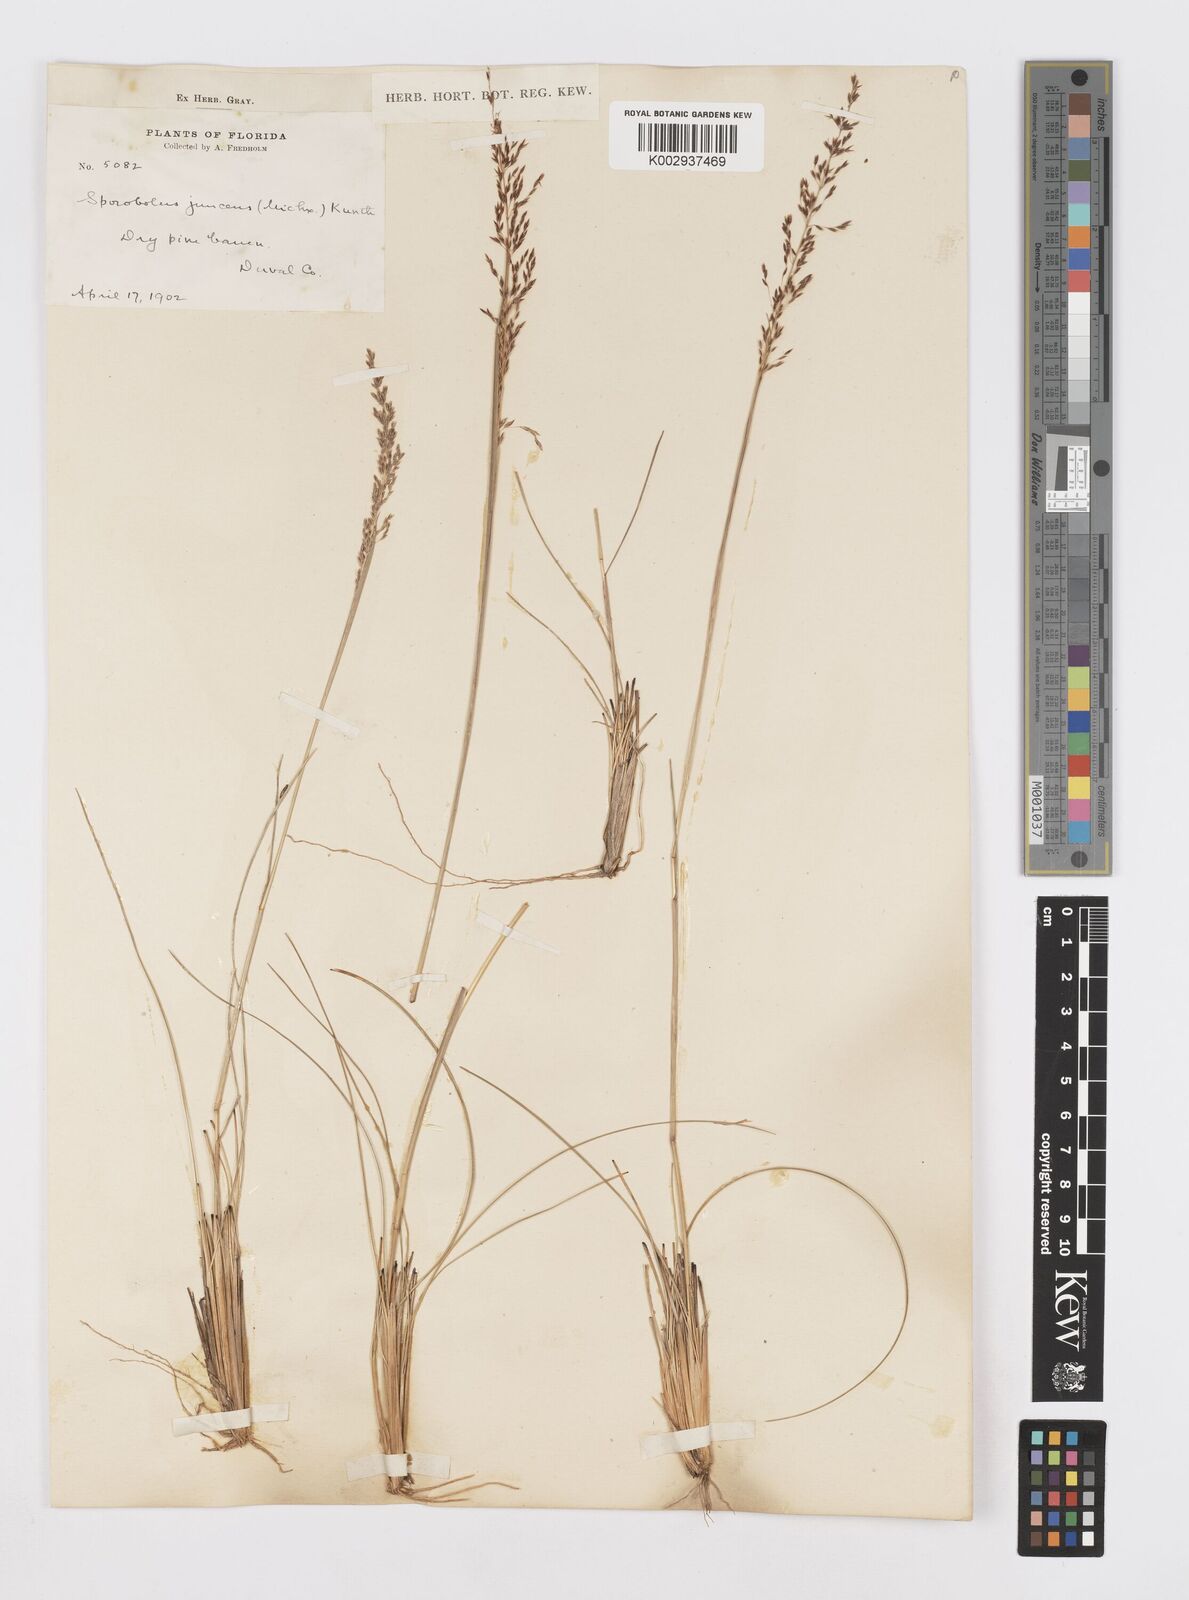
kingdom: Plantae
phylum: Tracheophyta
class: Liliopsida
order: Poales
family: Poaceae
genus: Sporobolus
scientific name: Sporobolus junceus
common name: Lizard grass
